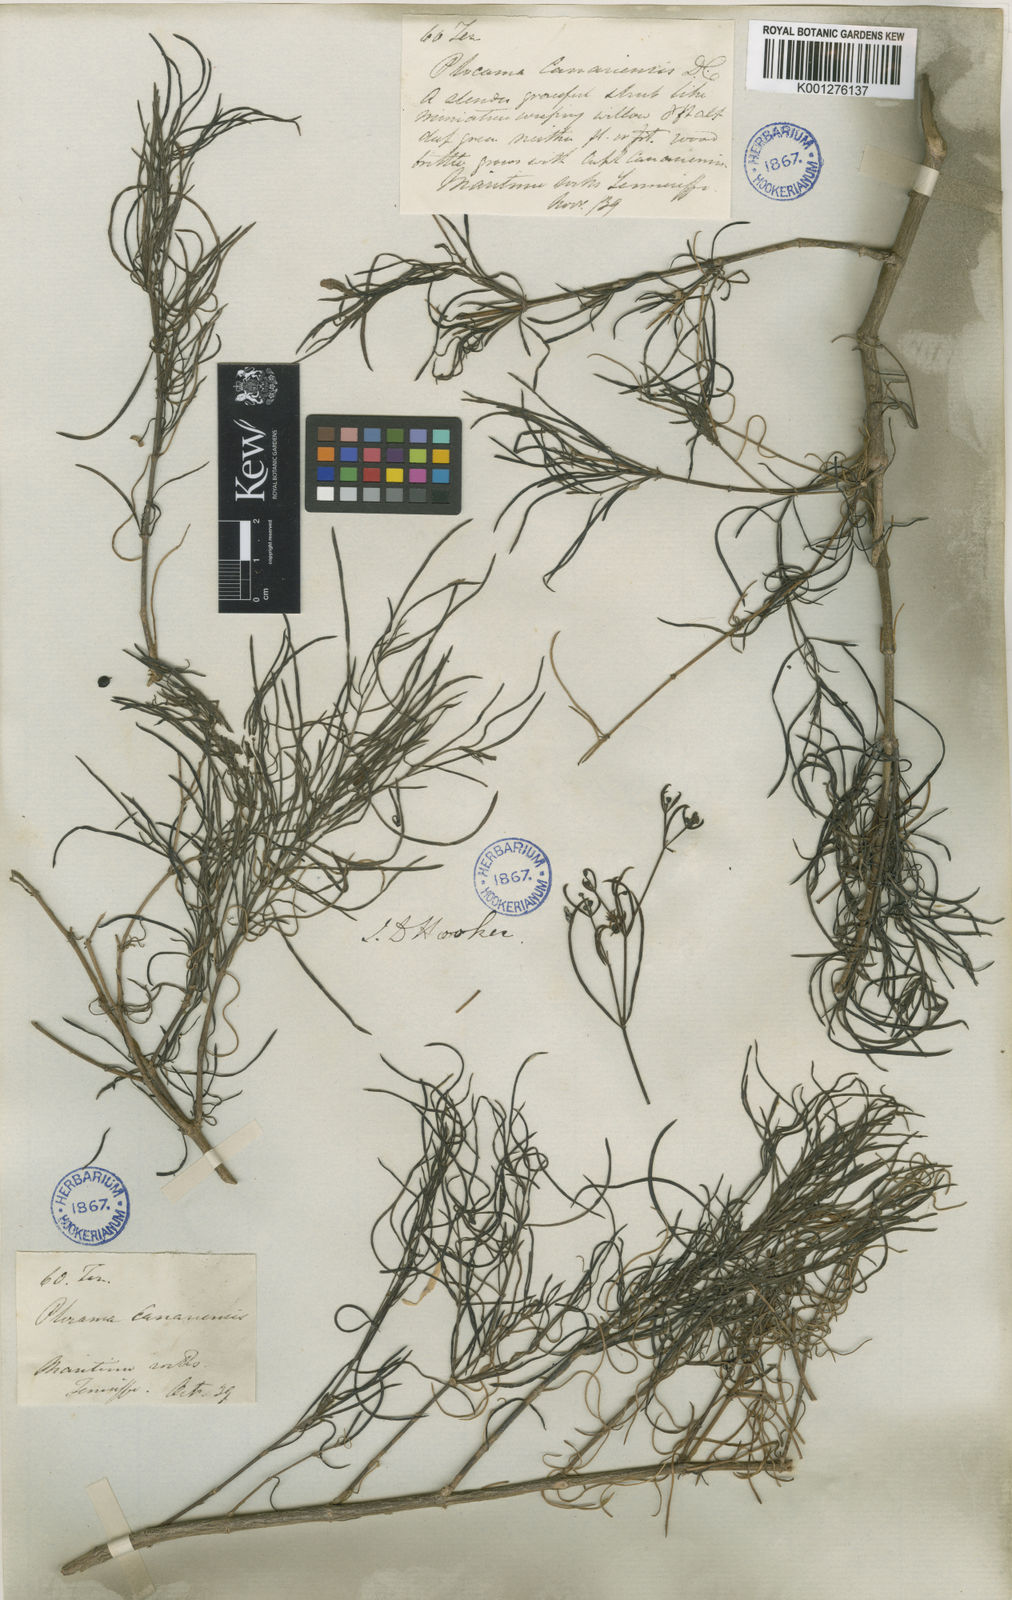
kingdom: Plantae
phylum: Tracheophyta
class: Magnoliopsida
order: Gentianales
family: Rubiaceae
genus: Plocama
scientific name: Plocama pendula
